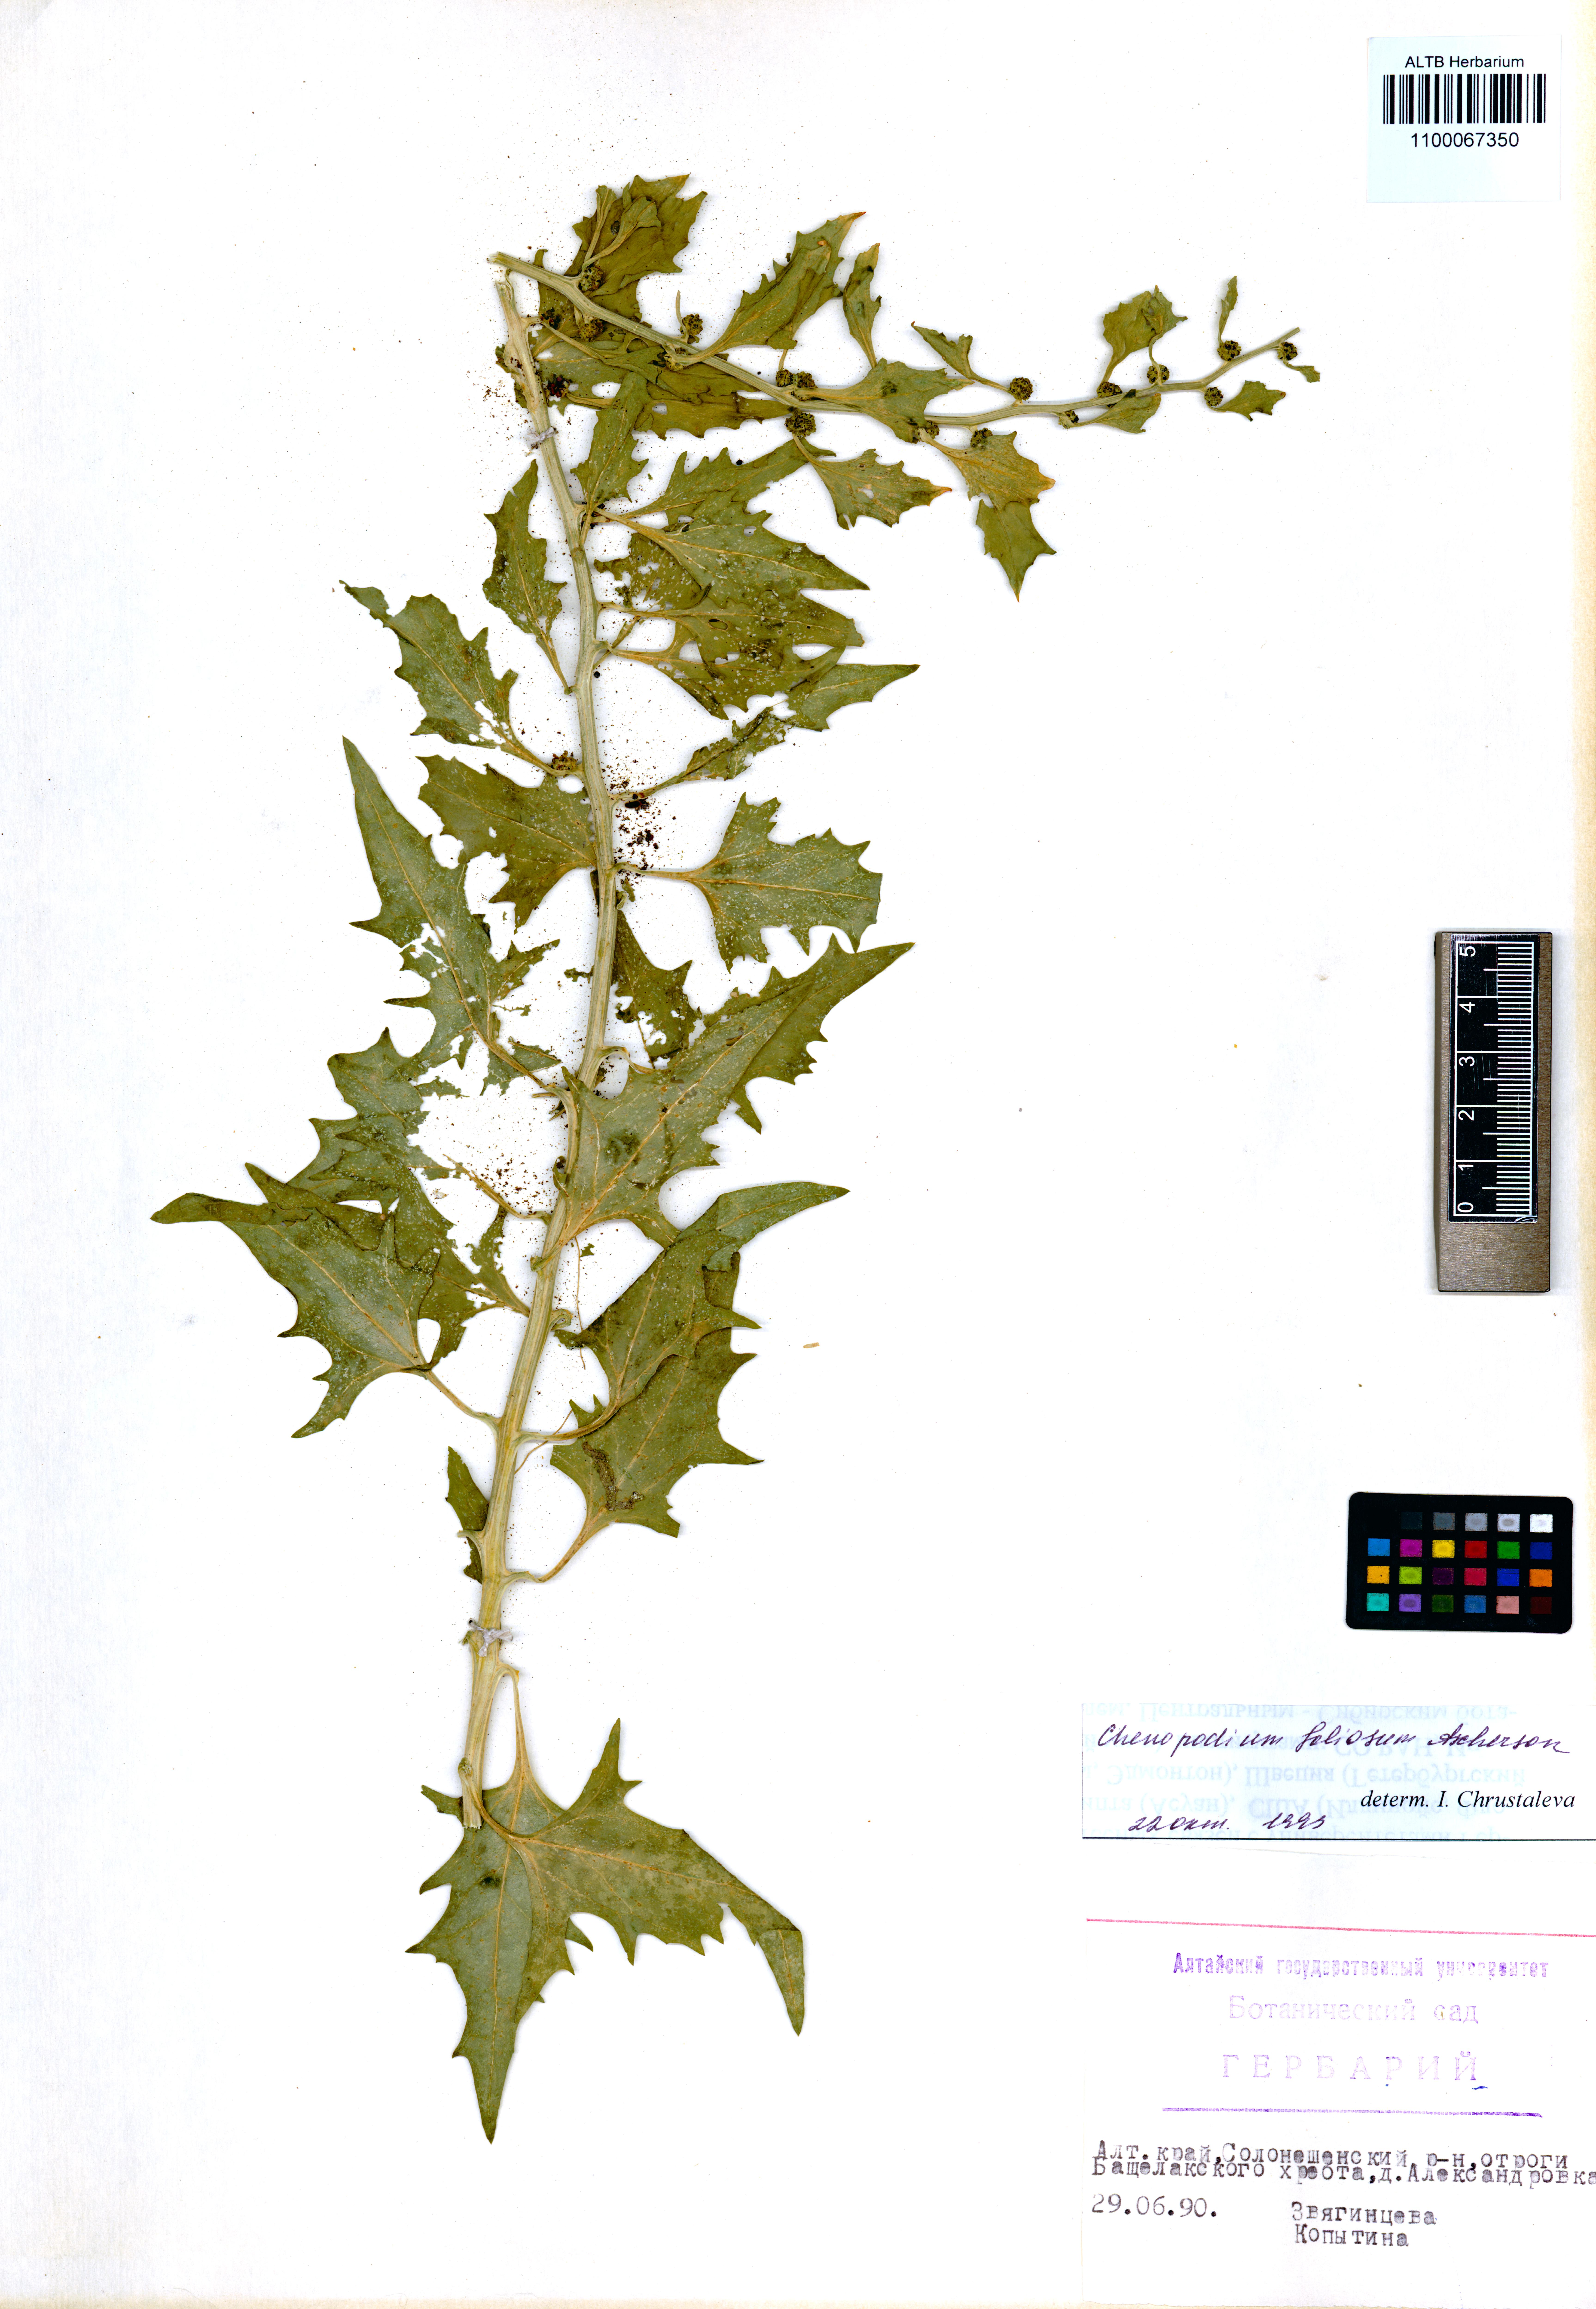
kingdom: Plantae
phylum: Tracheophyta
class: Magnoliopsida
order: Caryophyllales
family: Amaranthaceae
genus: Blitum
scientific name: Blitum virgatum
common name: Strawberry goosefoot
